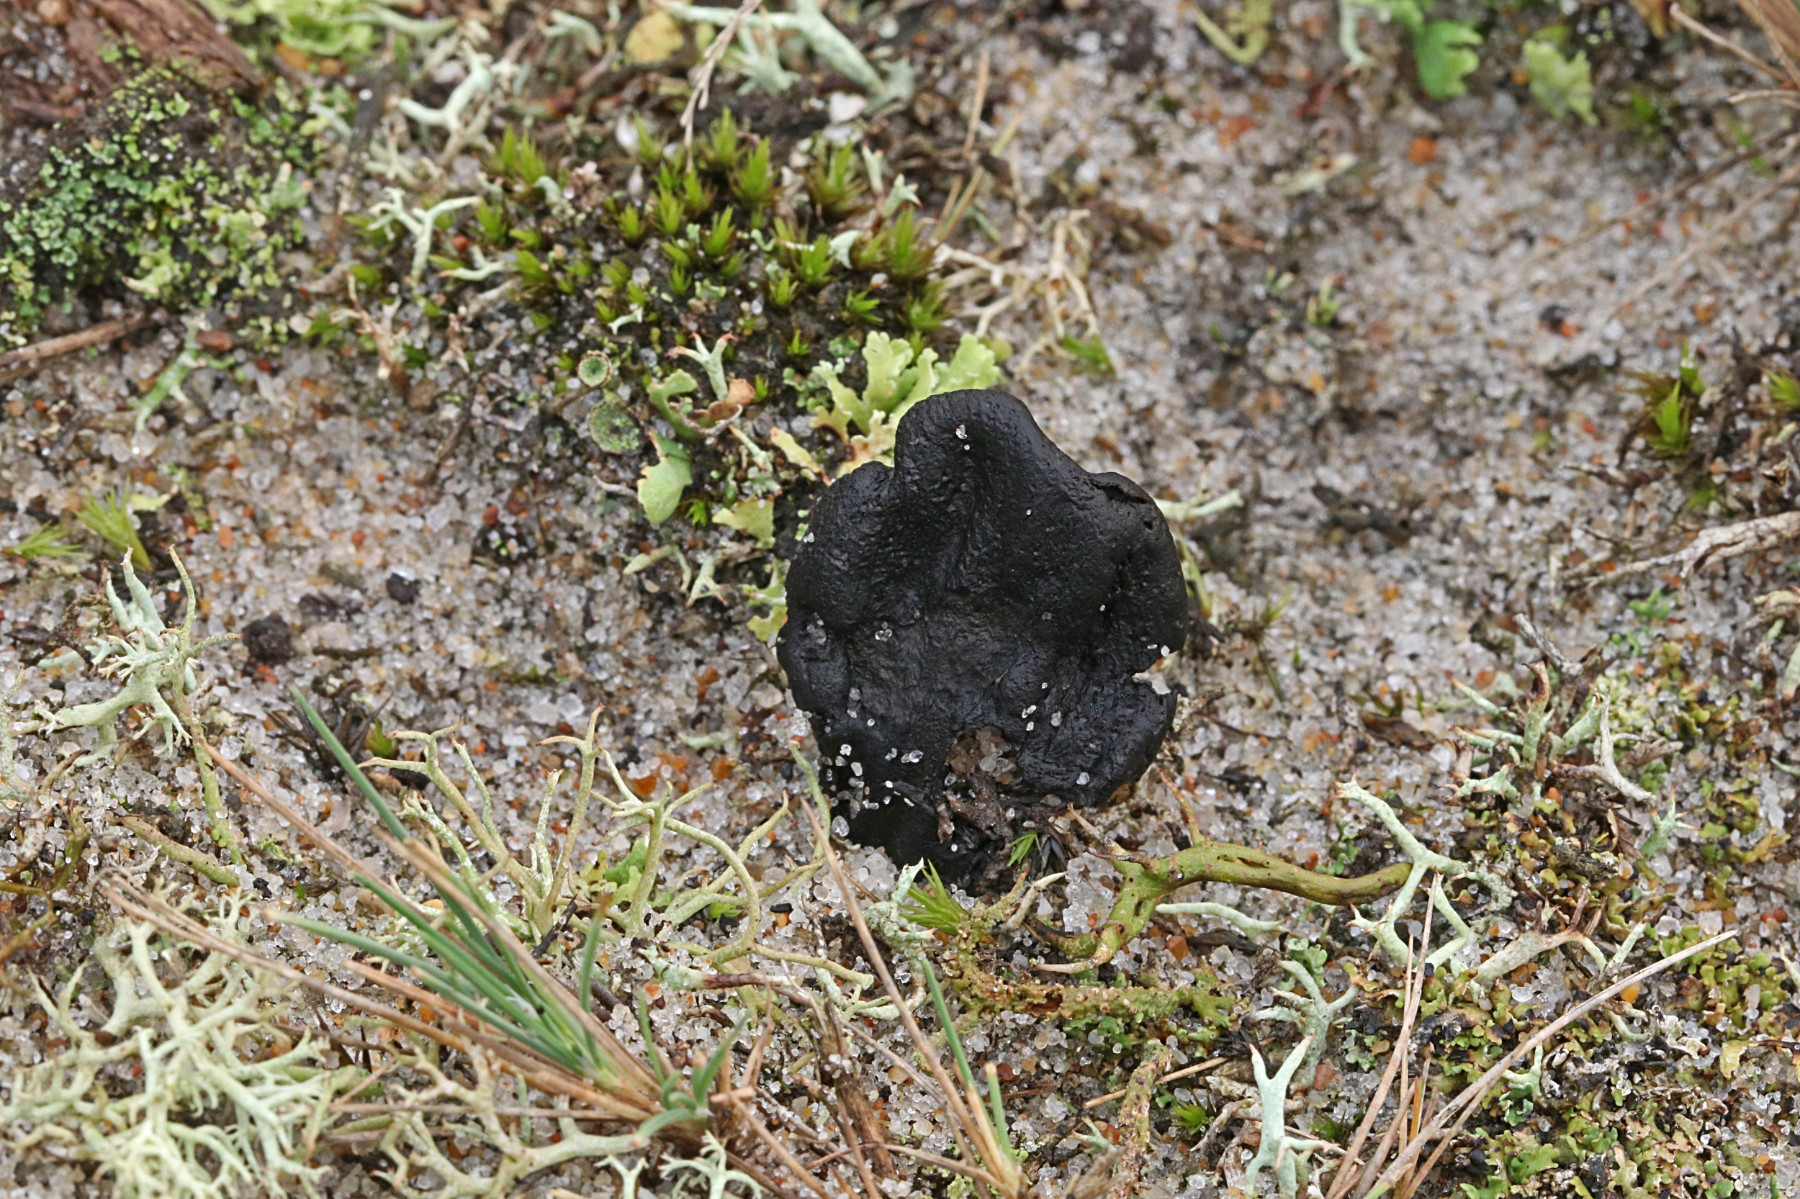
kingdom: Fungi
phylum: Ascomycota
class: Geoglossomycetes
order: Geoglossales
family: Geoglossaceae
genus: Sabuloglossum
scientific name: Sabuloglossum arenarium
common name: klit-jordtunge
